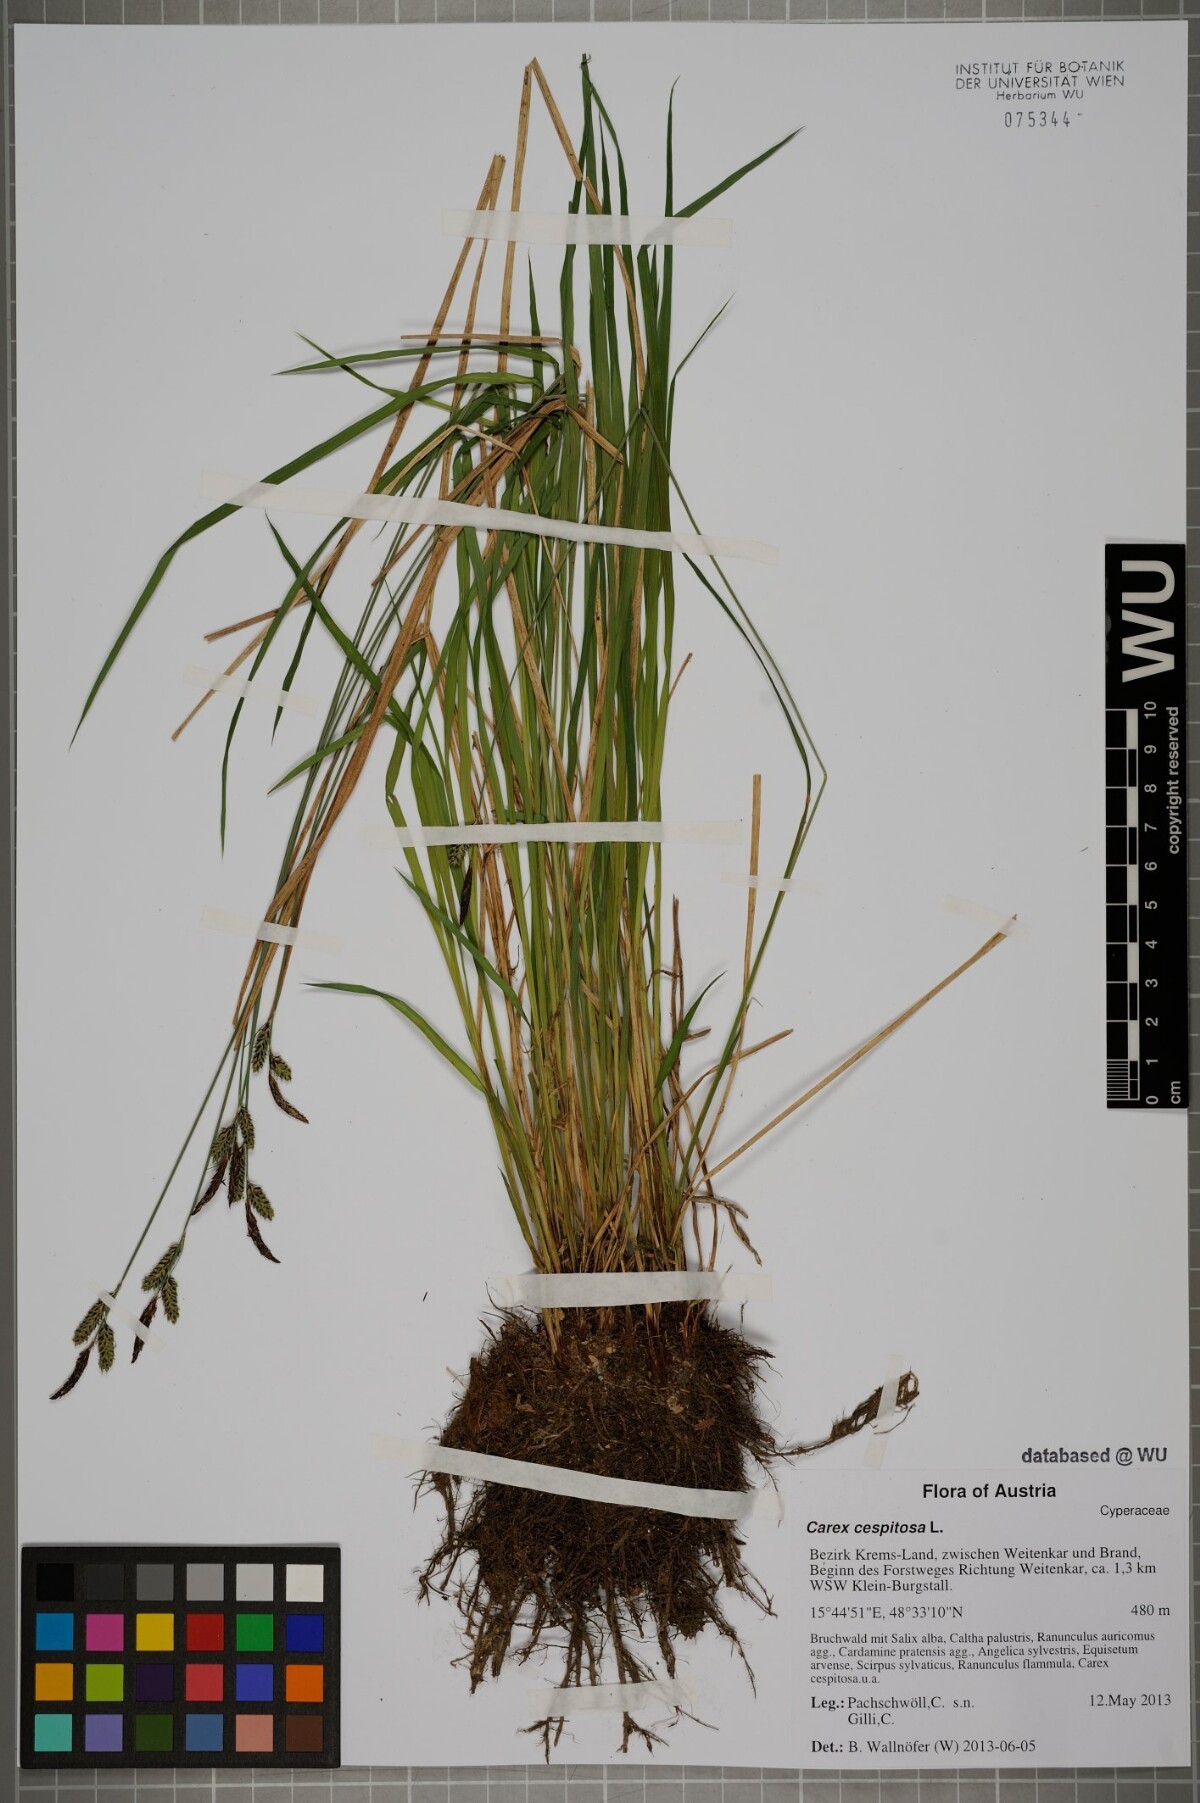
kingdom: Plantae
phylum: Tracheophyta
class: Liliopsida
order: Poales
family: Cyperaceae
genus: Carex
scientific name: Carex cespitosa
